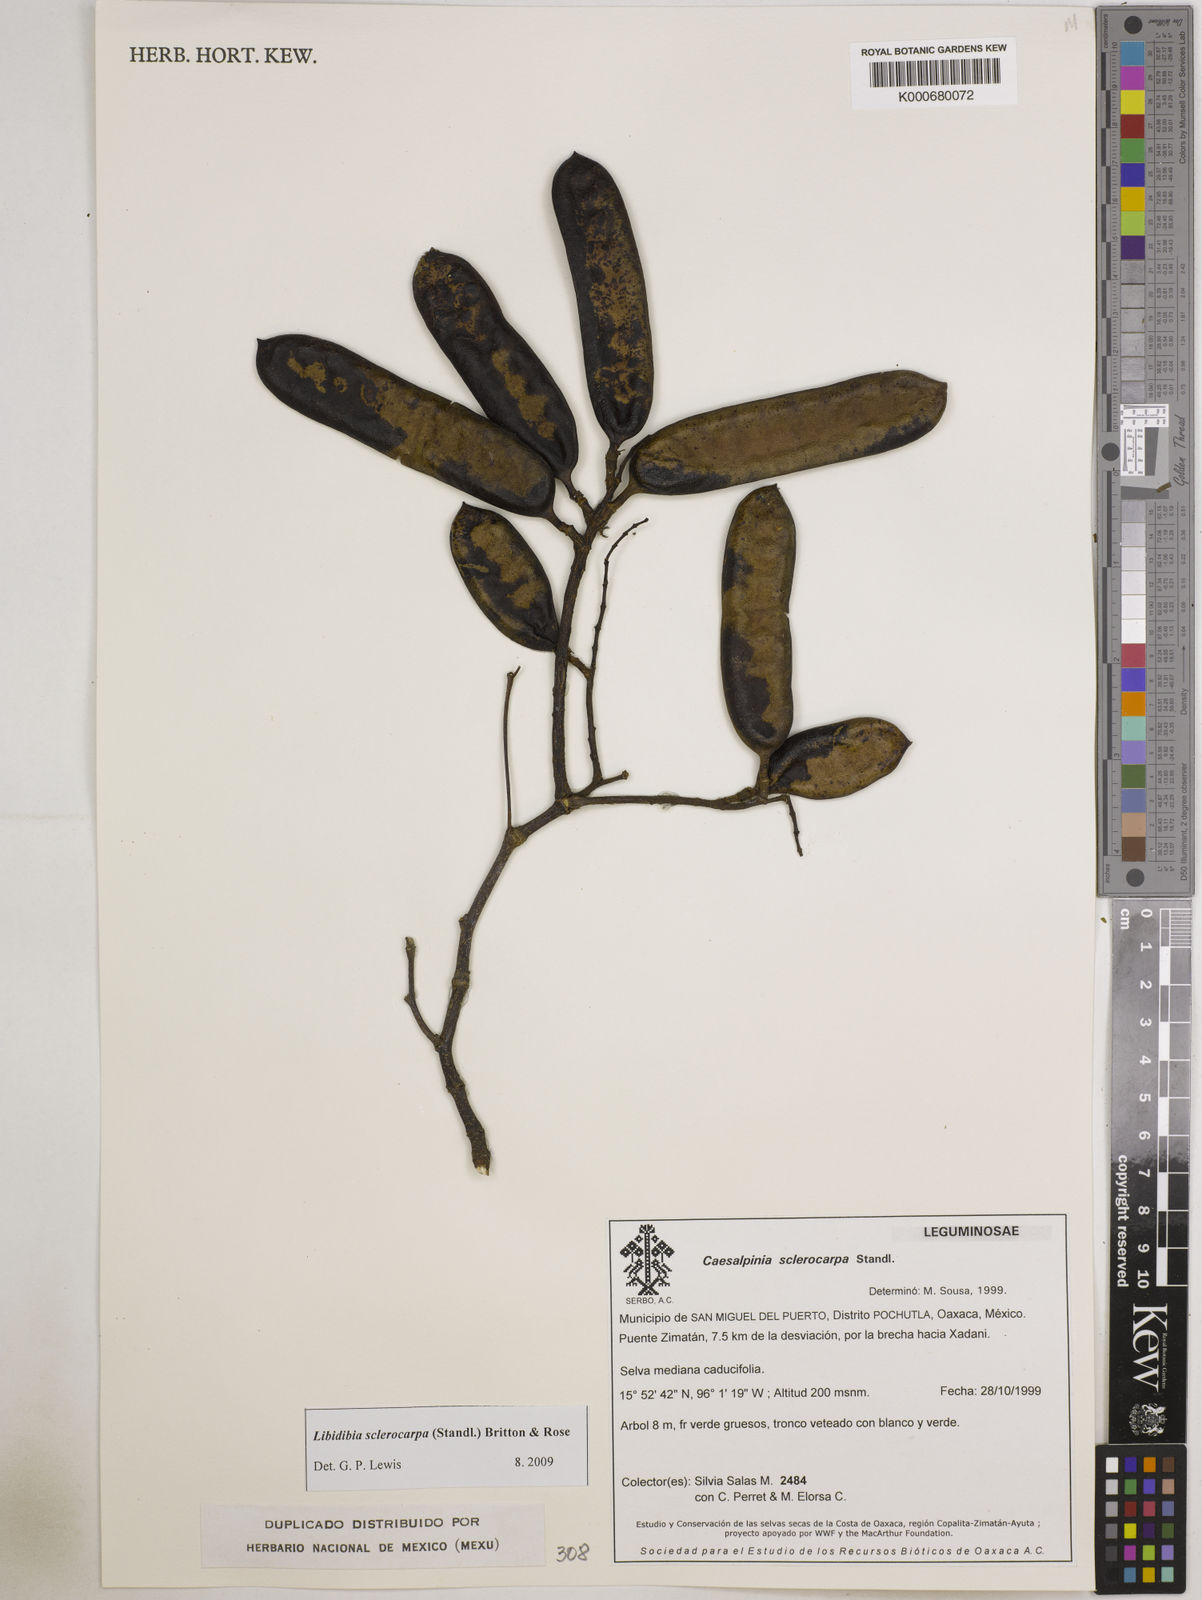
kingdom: Plantae
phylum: Tracheophyta
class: Magnoliopsida
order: Fabales
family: Fabaceae
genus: Libidibia
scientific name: Libidibia sclerocarpa
